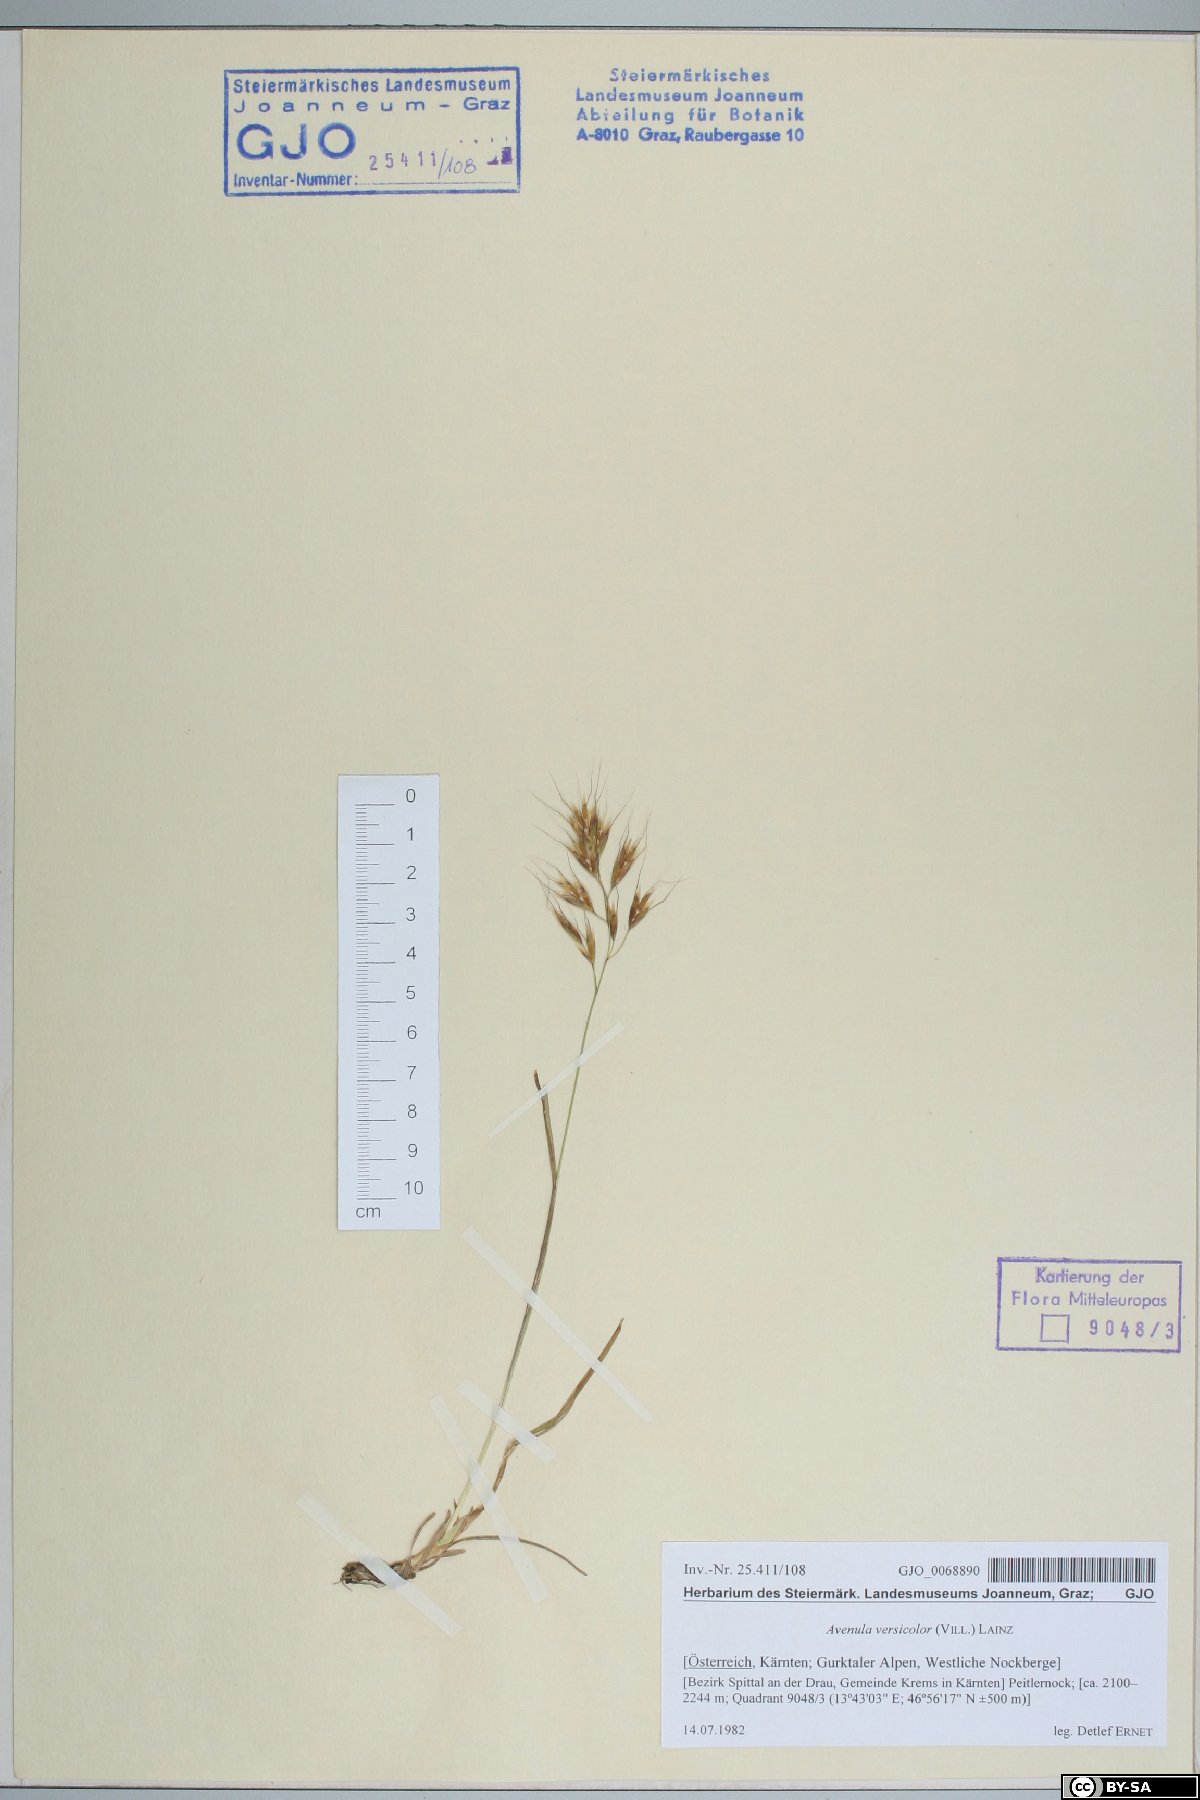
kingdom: Plantae
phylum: Tracheophyta
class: Liliopsida
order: Poales
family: Poaceae
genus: Helictochloa
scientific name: Helictochloa versicolor
